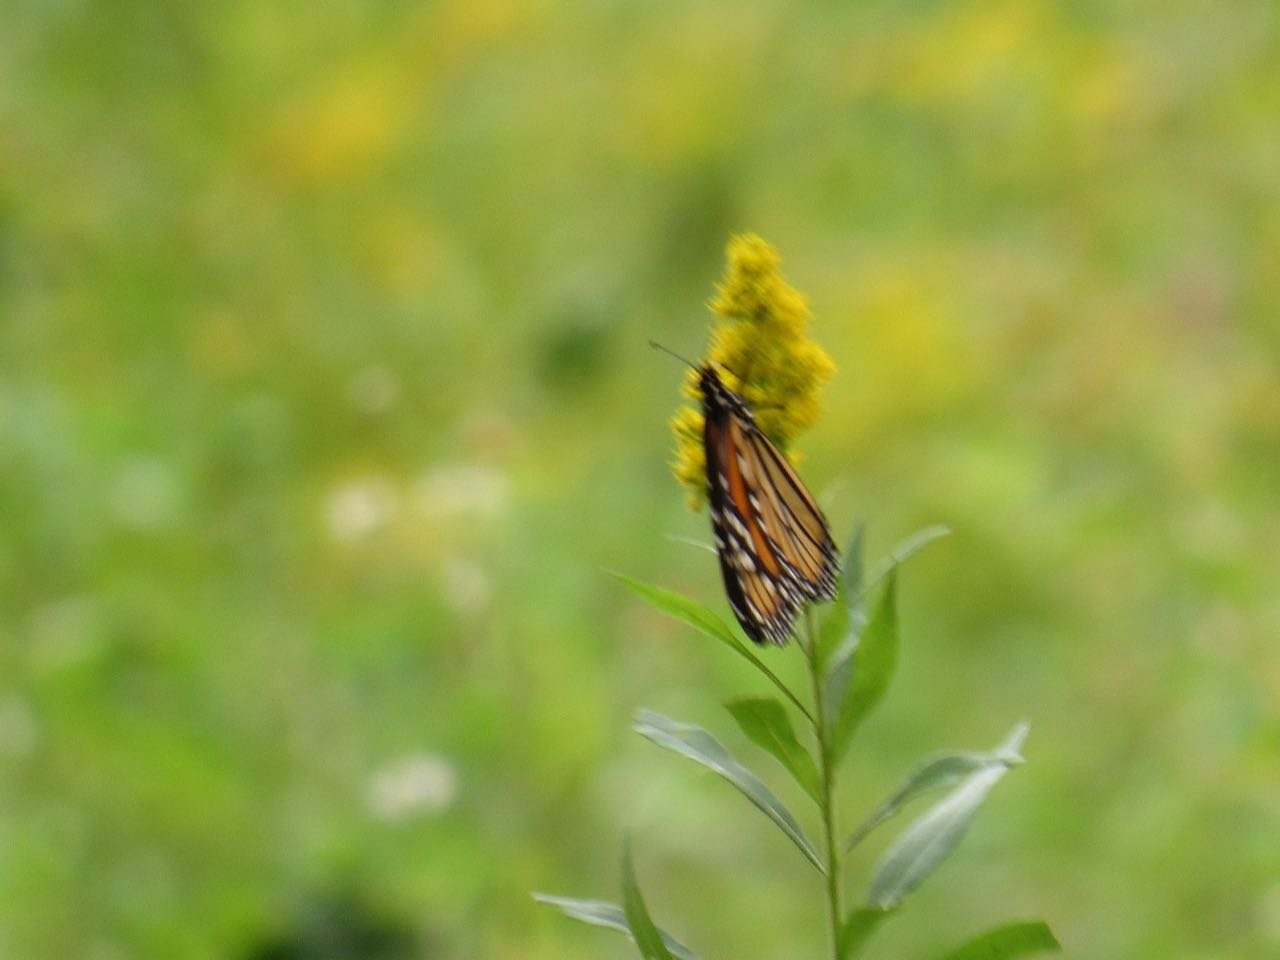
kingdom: Animalia
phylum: Arthropoda
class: Insecta
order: Lepidoptera
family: Nymphalidae
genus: Danaus
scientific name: Danaus plexippus
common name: Monarch
